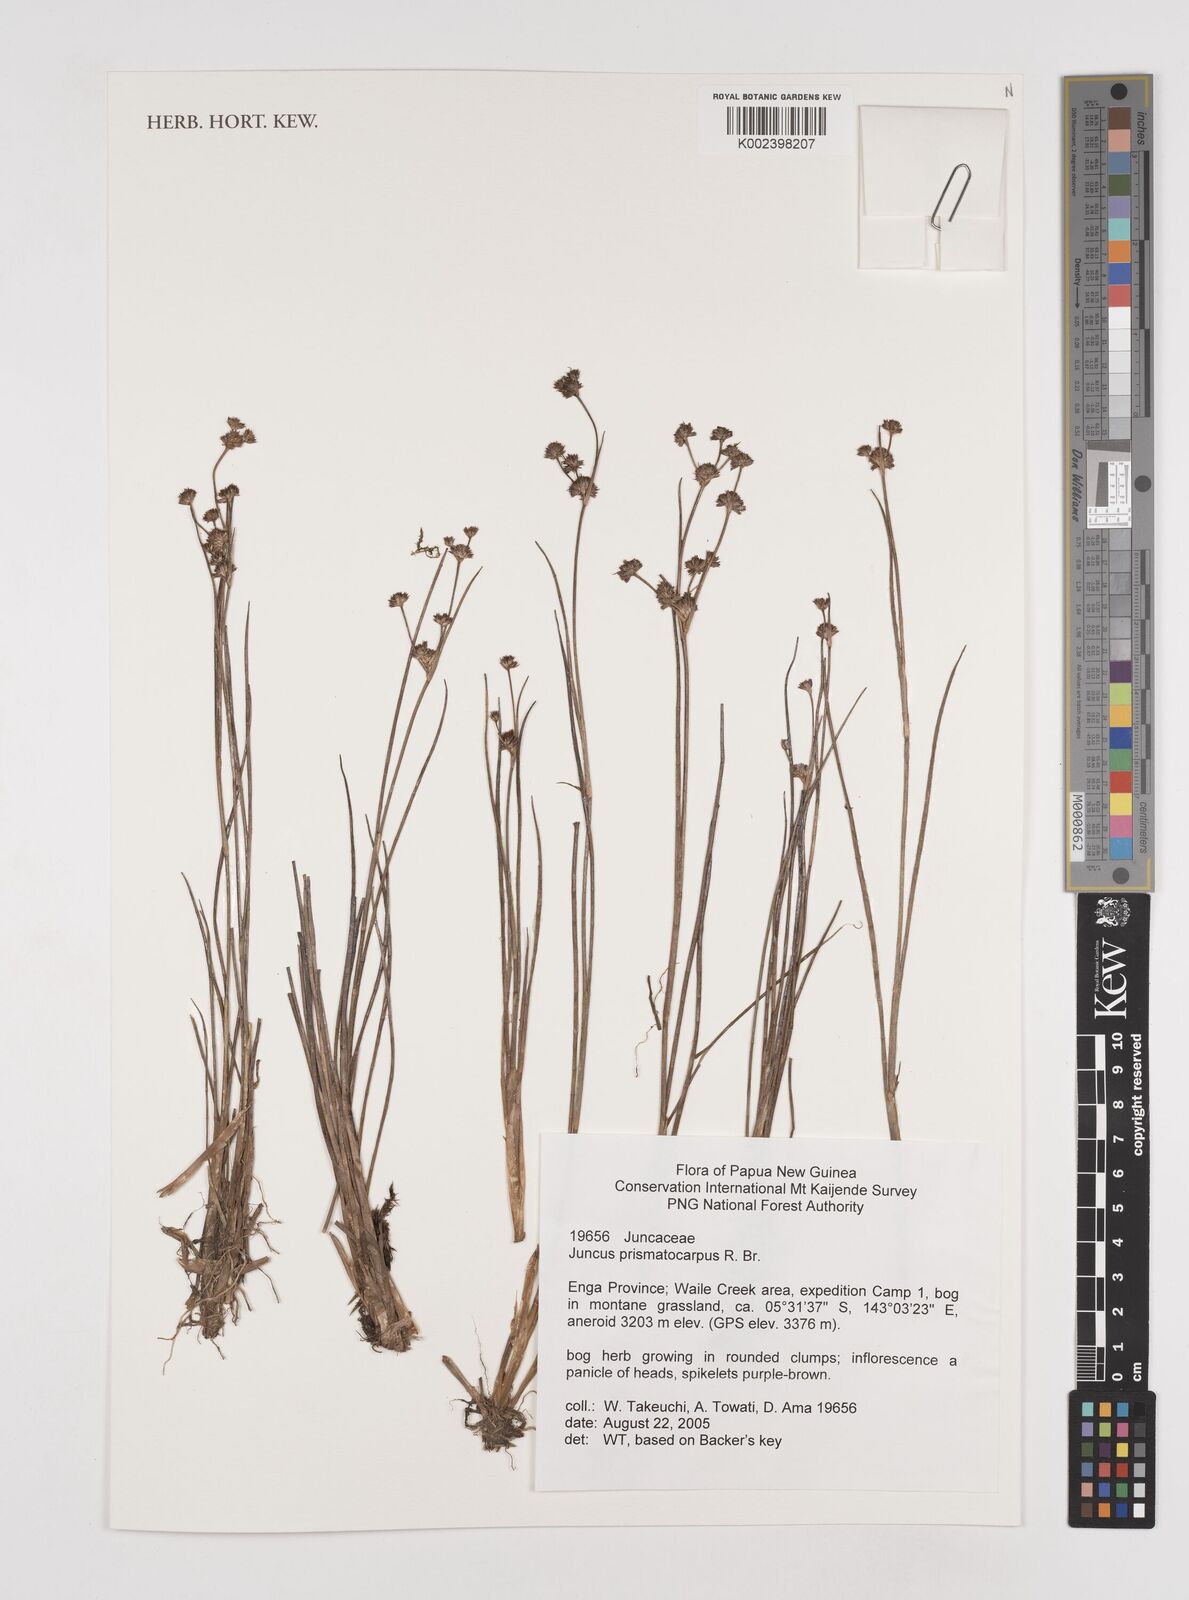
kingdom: Plantae
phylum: Tracheophyta
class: Liliopsida
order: Poales
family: Juncaceae
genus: Juncus
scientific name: Juncus prismatocarpus
